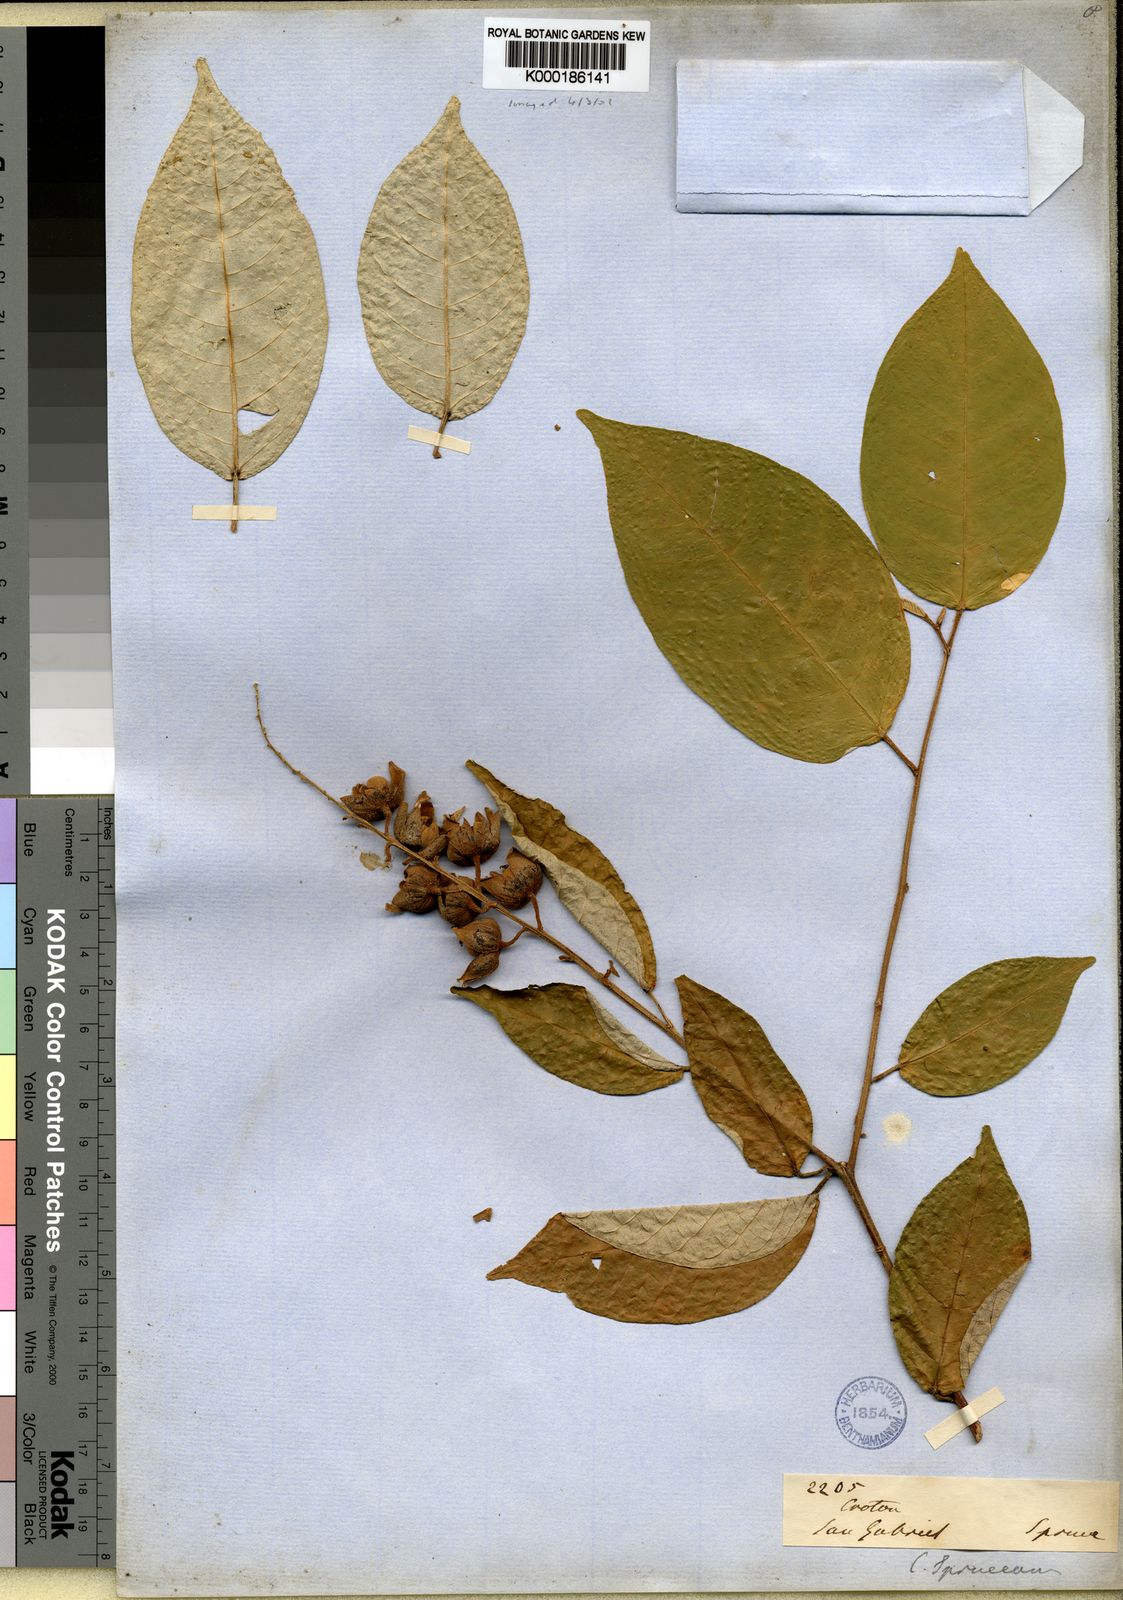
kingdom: Plantae
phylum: Tracheophyta
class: Magnoliopsida
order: Malpighiales
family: Euphorbiaceae
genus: Croton
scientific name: Croton spruceanus
